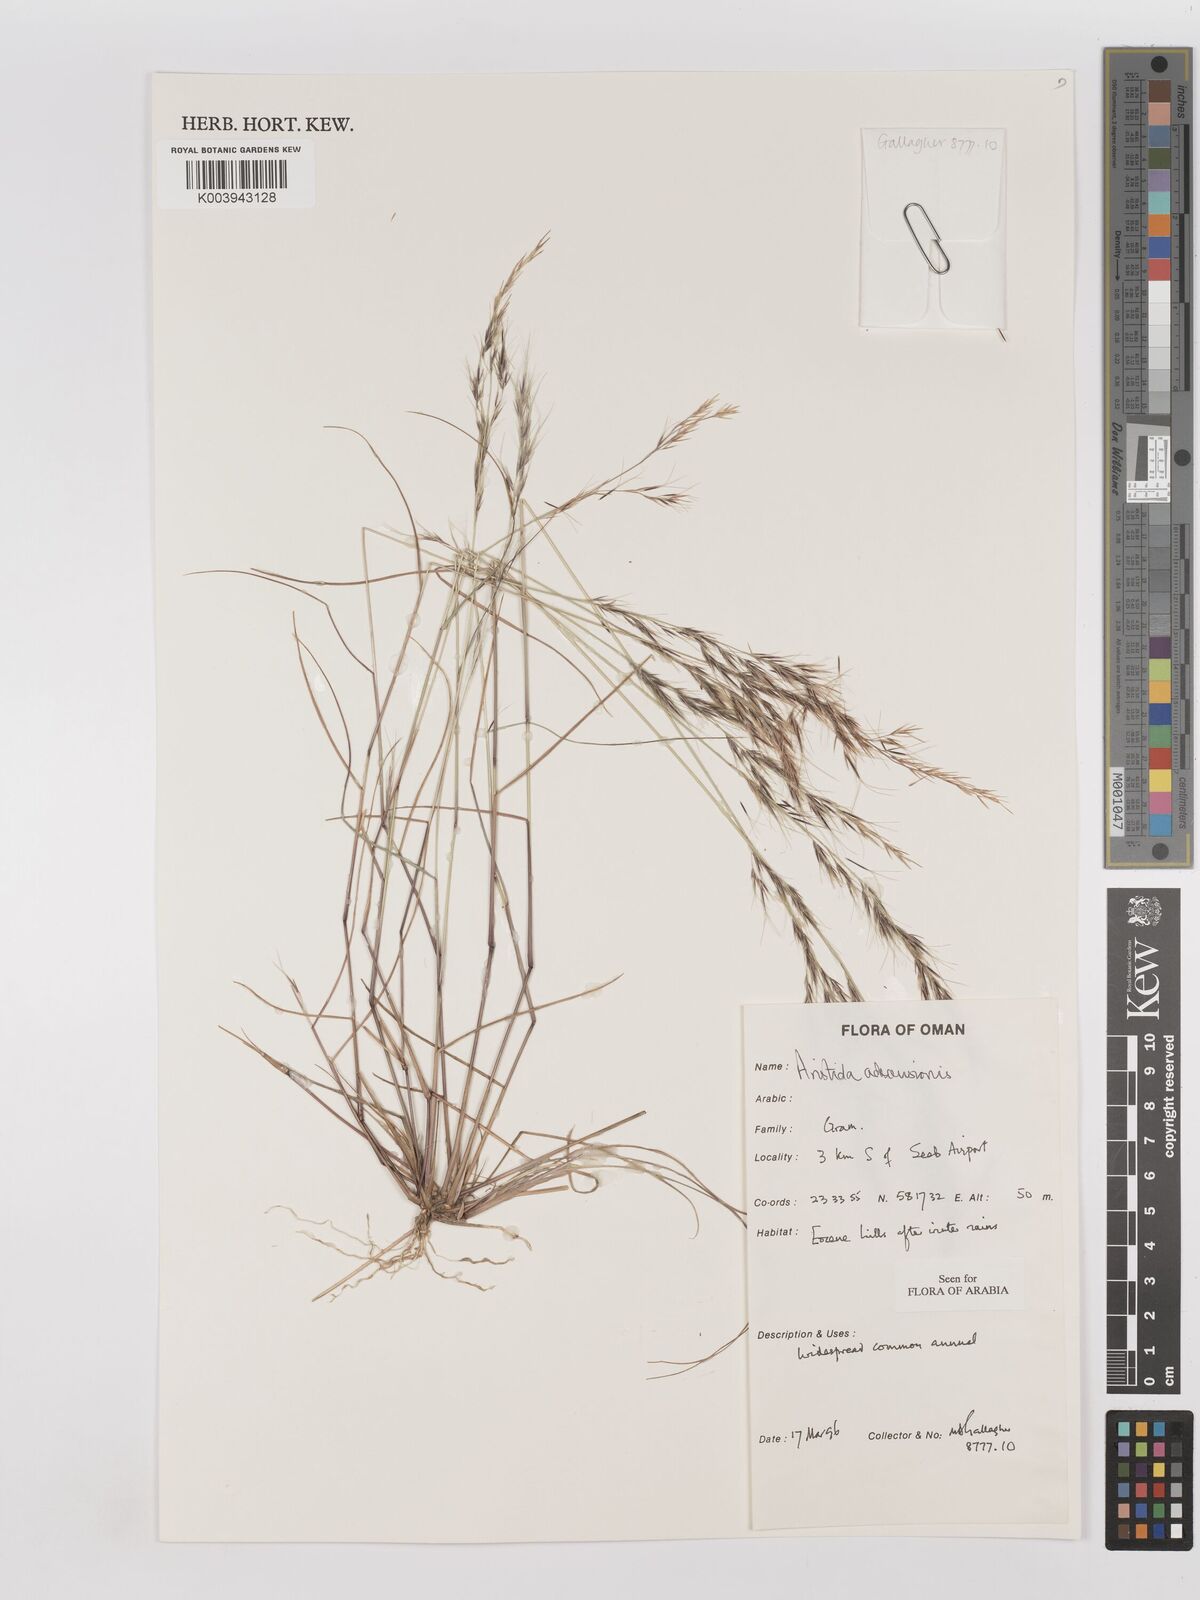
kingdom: Plantae
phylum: Tracheophyta
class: Liliopsida
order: Poales
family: Poaceae
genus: Aristida
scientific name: Aristida adscensionis
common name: Sixweeks threeawn
